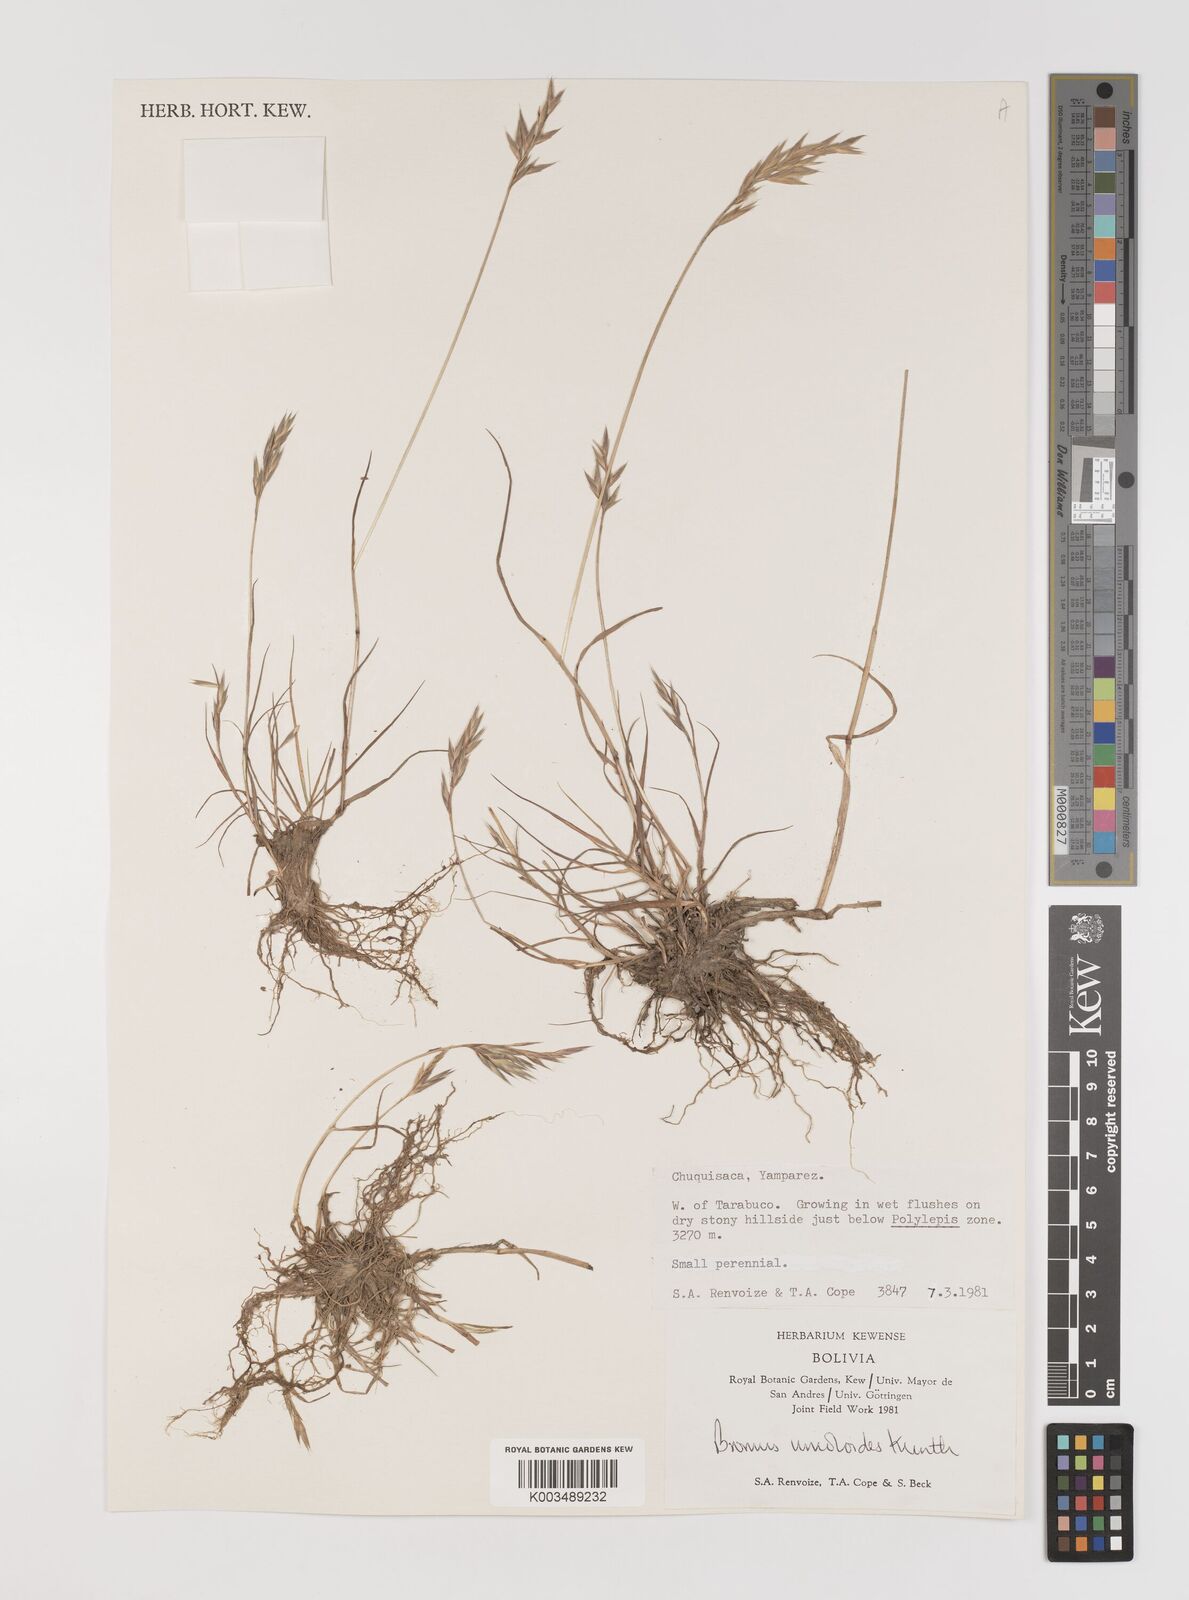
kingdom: Plantae
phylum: Tracheophyta
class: Liliopsida
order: Poales
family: Poaceae
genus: Bromus
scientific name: Bromus catharticus
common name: Rescuegrass
